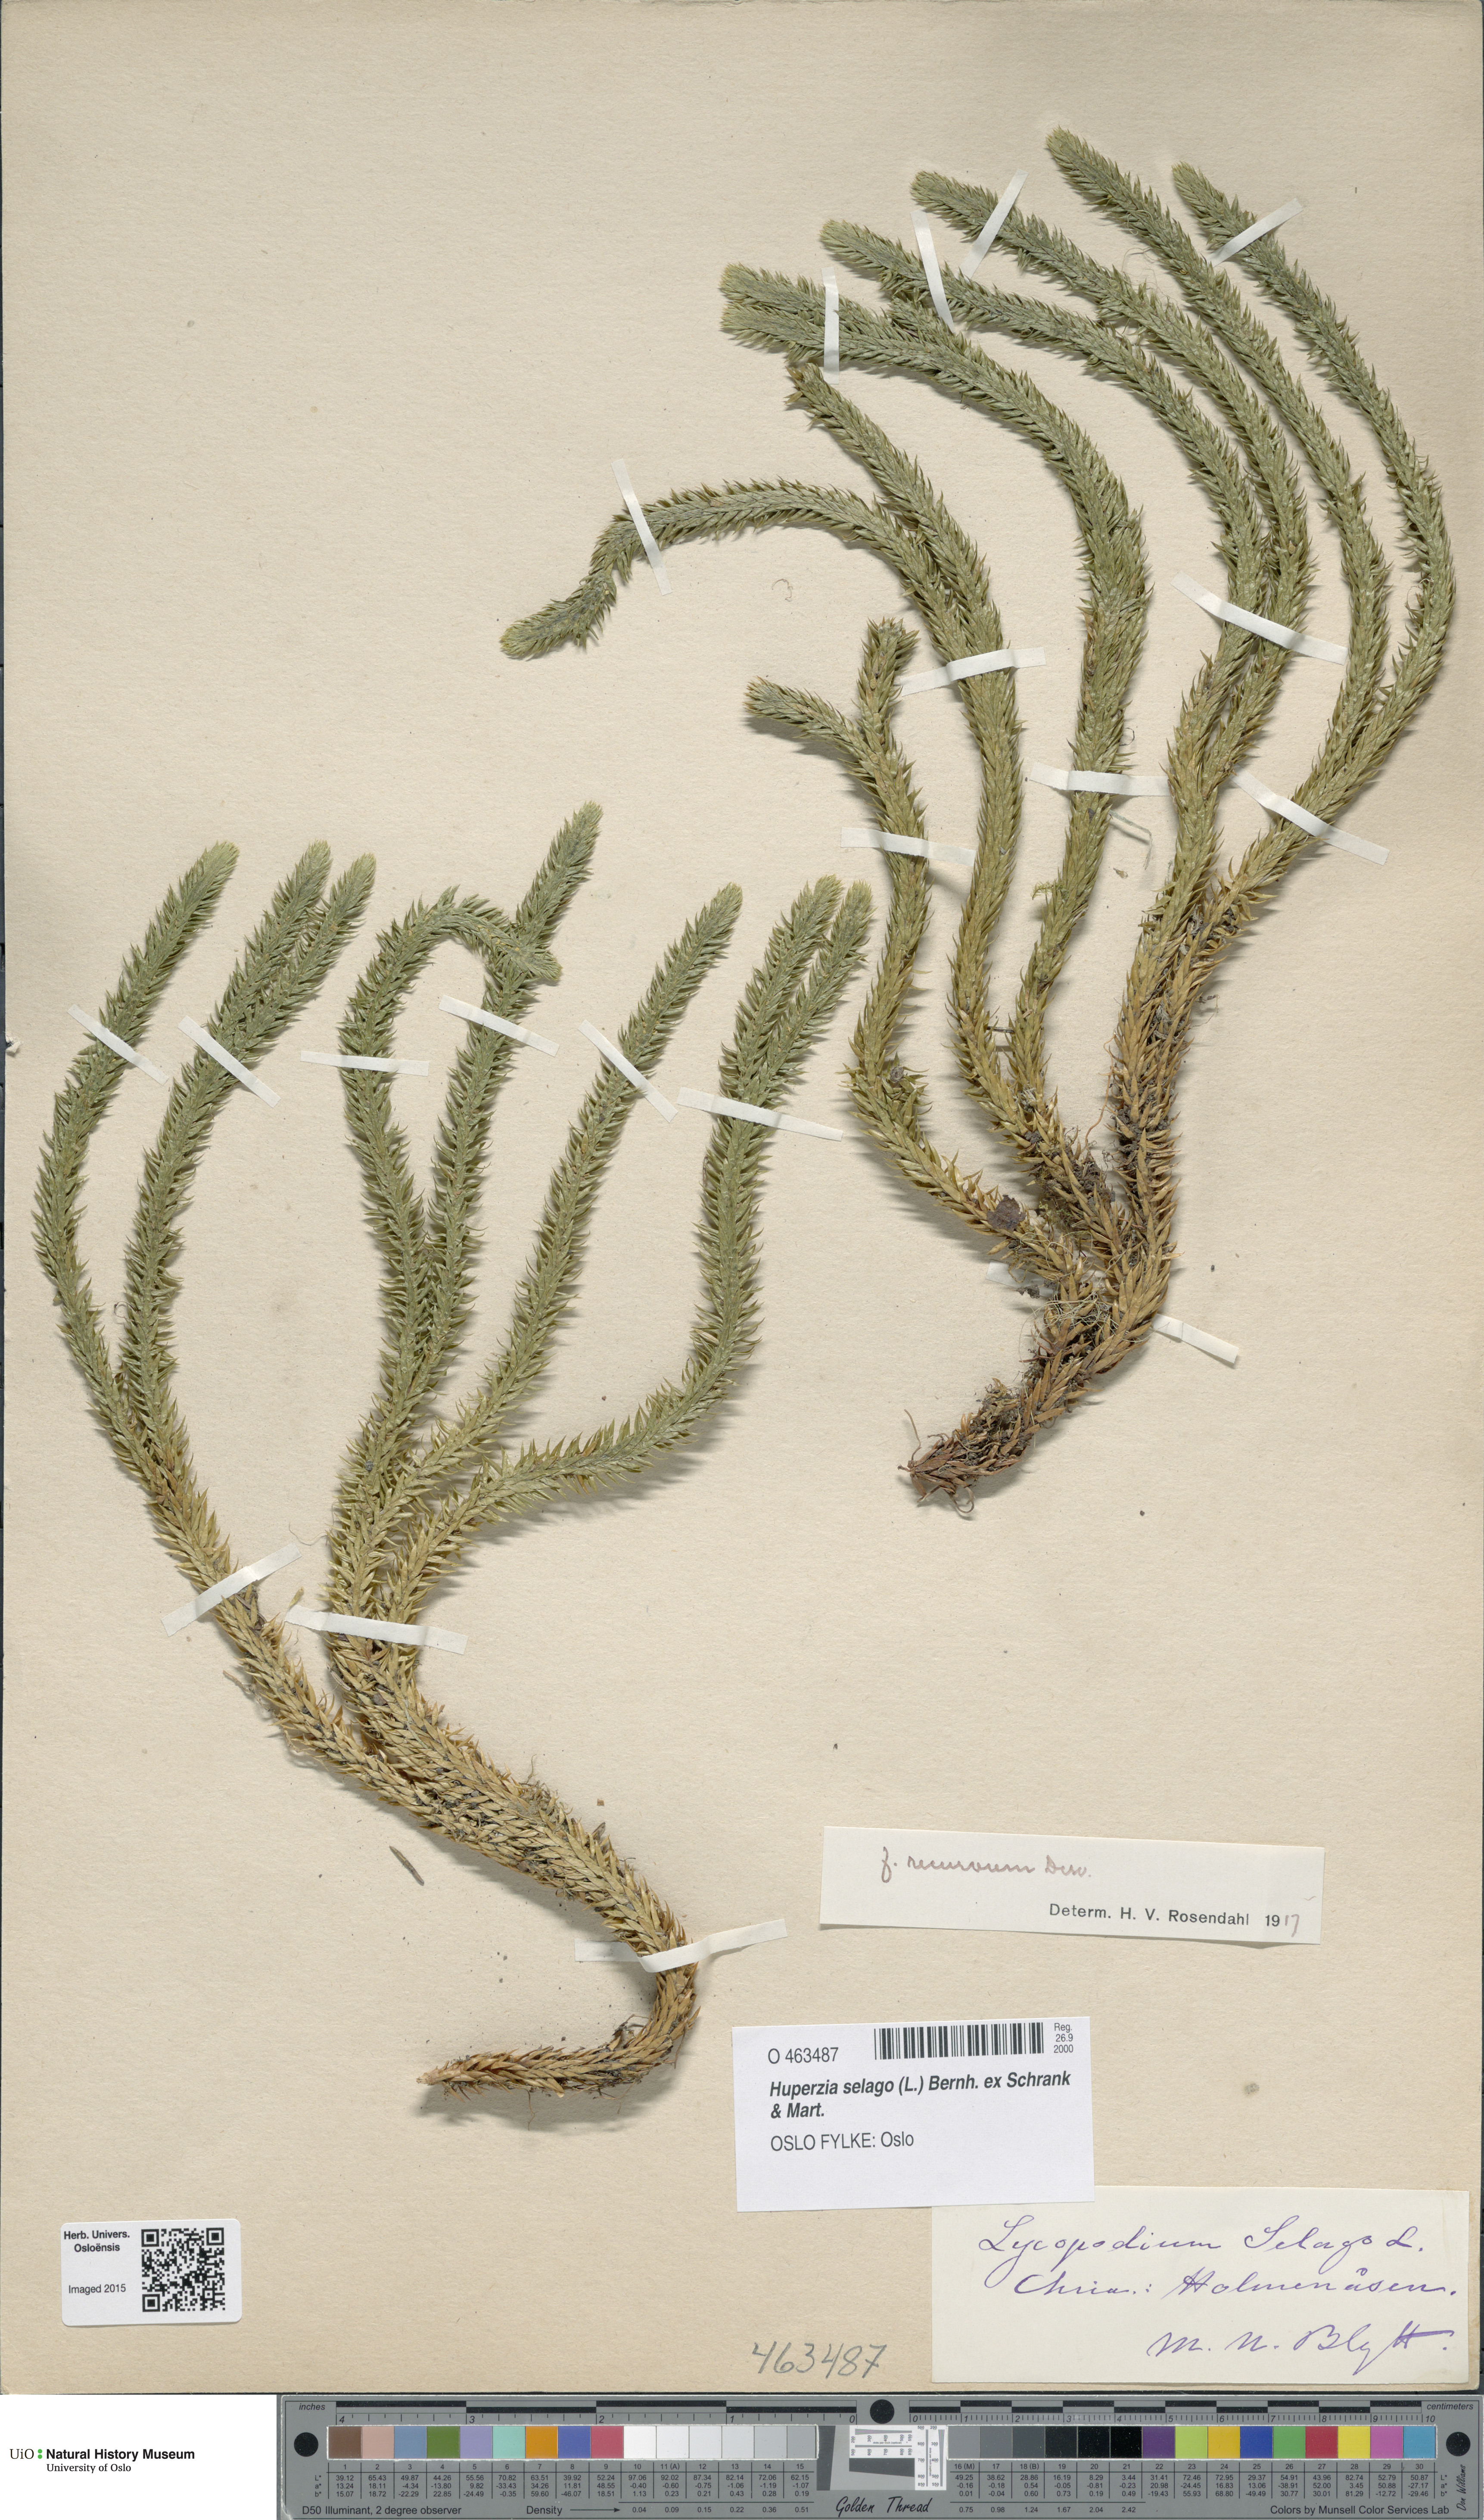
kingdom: Plantae
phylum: Tracheophyta
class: Lycopodiopsida
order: Lycopodiales
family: Lycopodiaceae
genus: Huperzia
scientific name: Huperzia selago
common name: Northern firmoss
